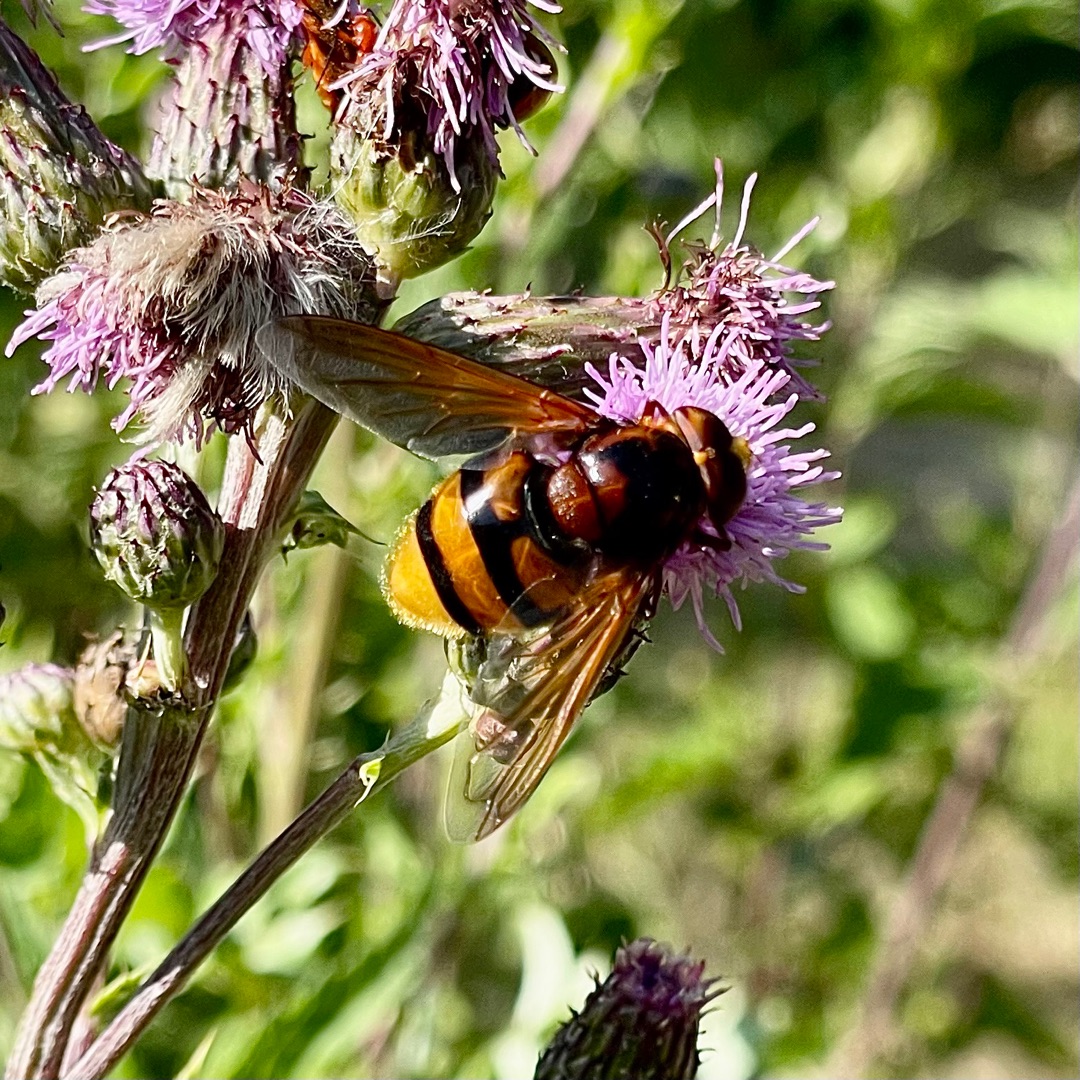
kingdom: Animalia
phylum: Arthropoda
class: Insecta
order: Diptera
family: Syrphidae
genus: Volucella
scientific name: Volucella zonaria
